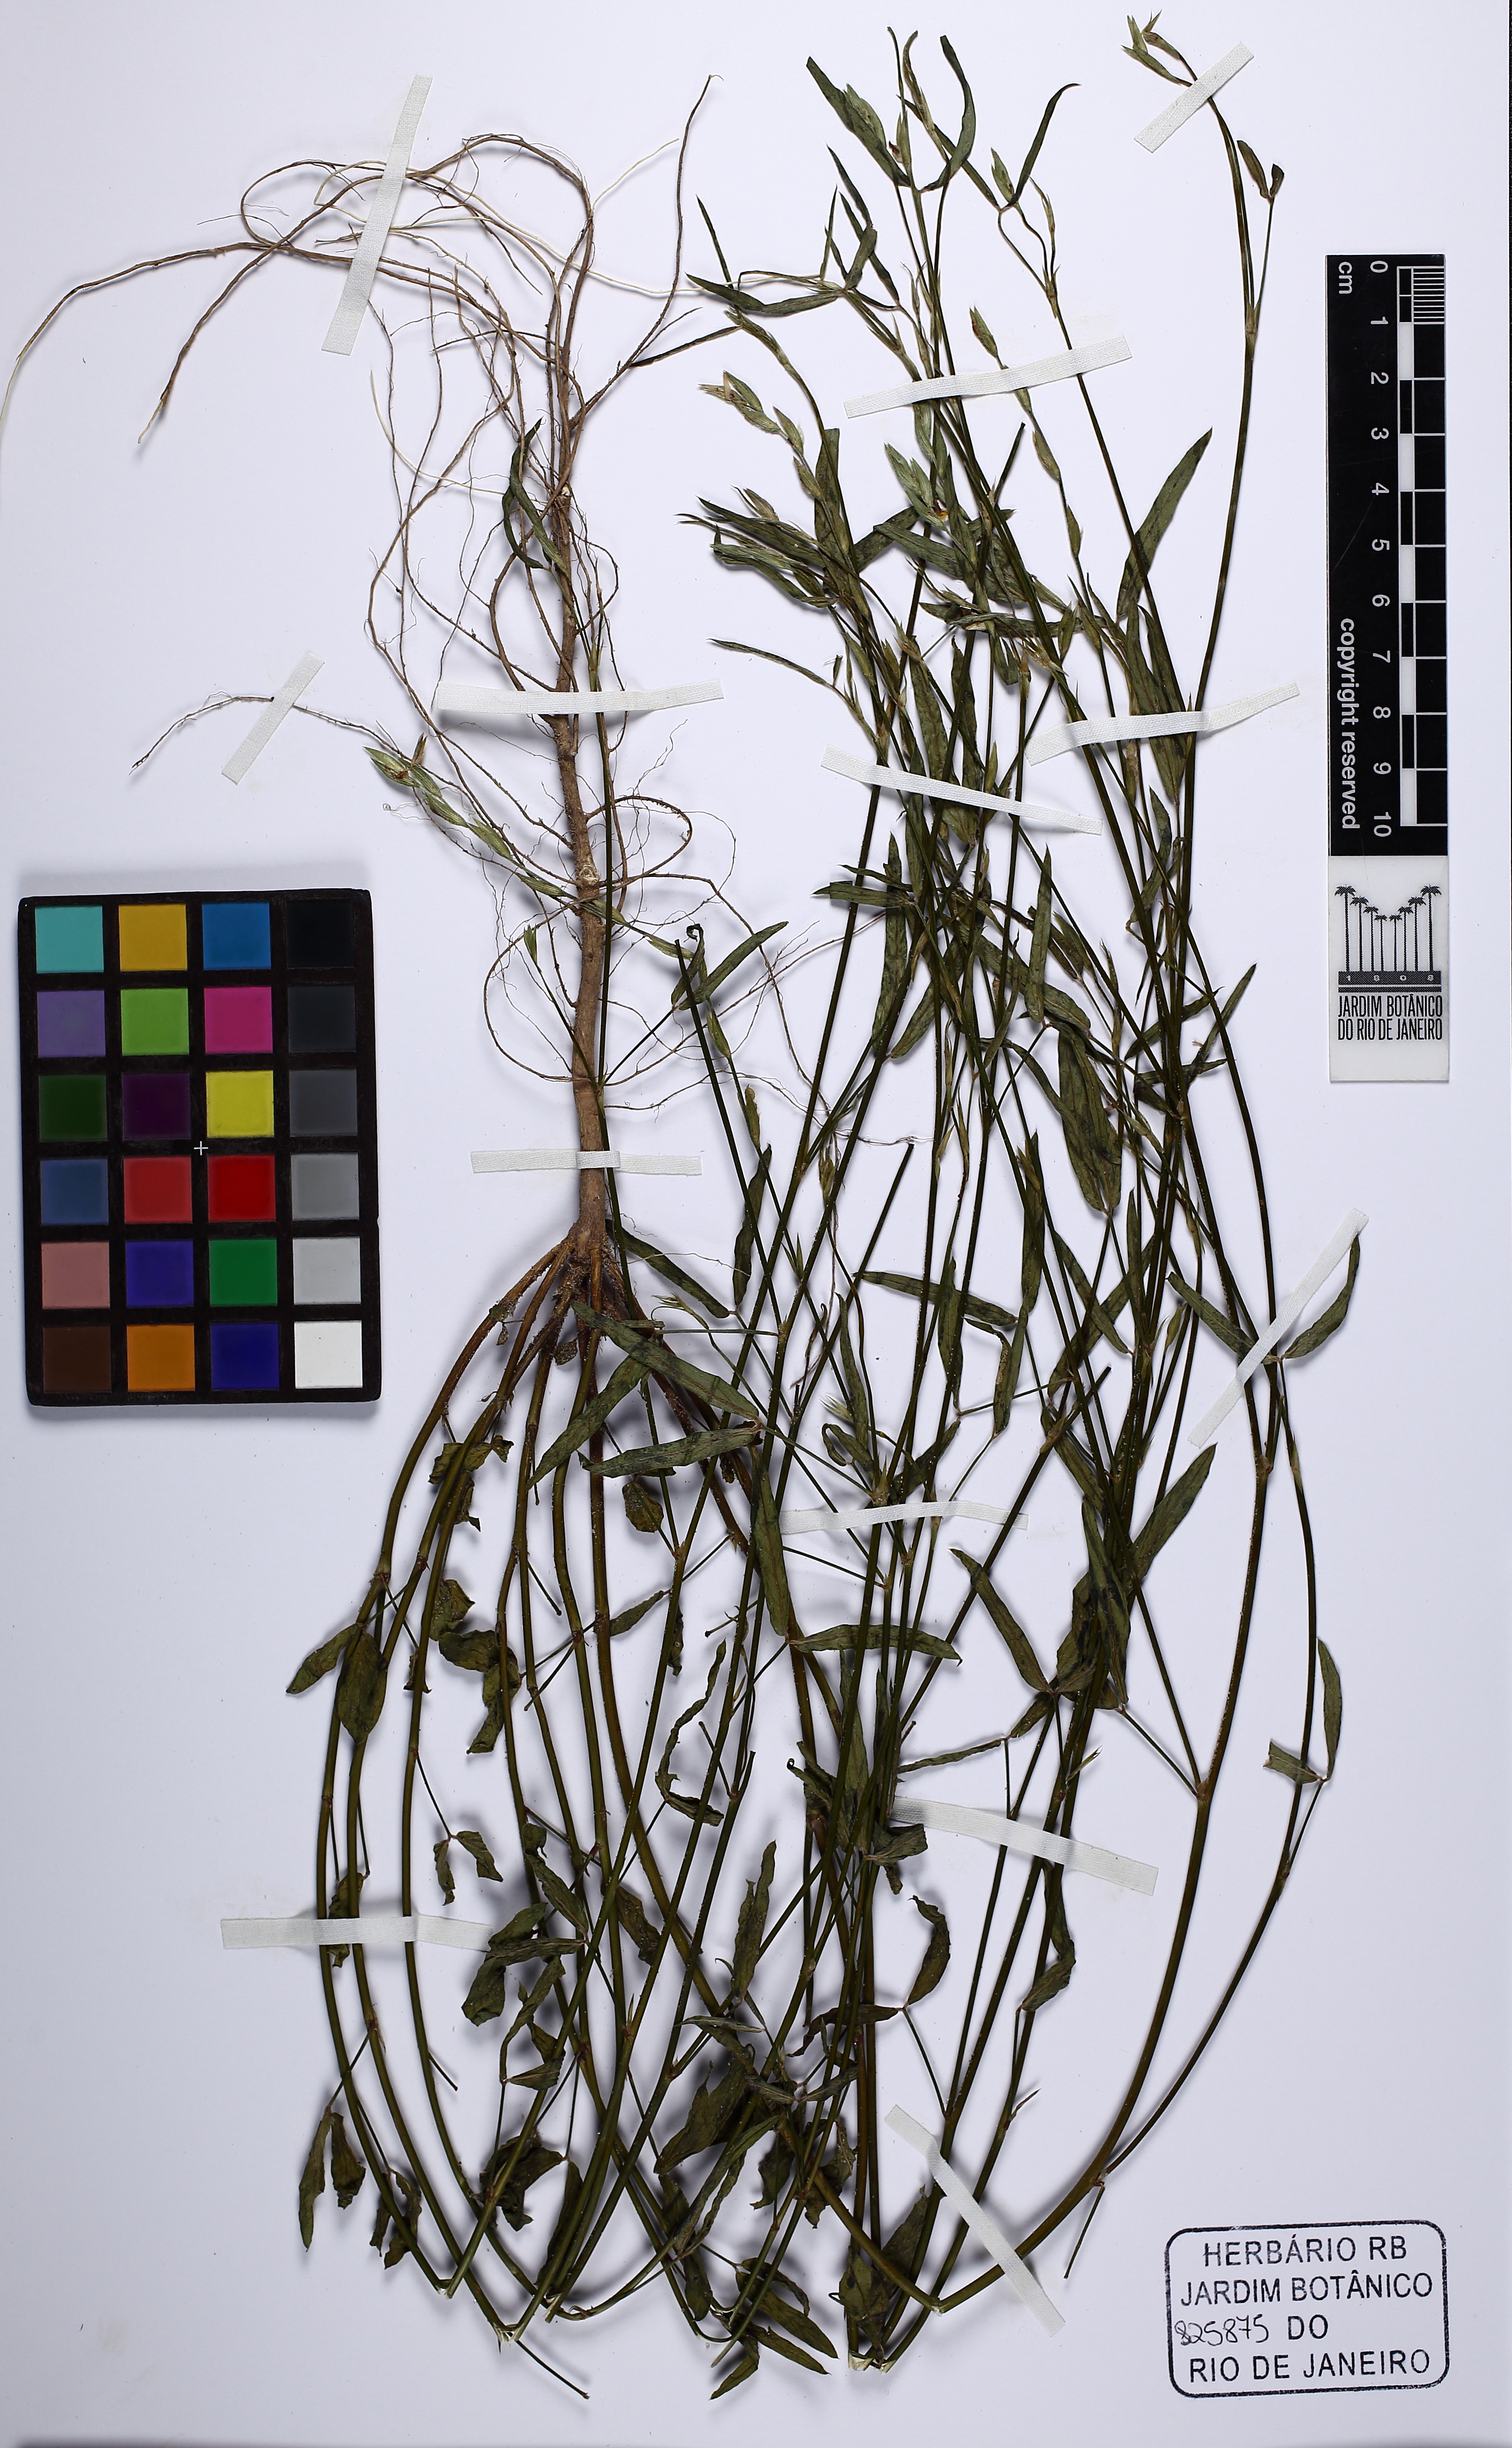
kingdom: Plantae
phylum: Tracheophyta
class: Magnoliopsida
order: Fabales
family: Fabaceae
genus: Zornia
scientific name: Zornia
